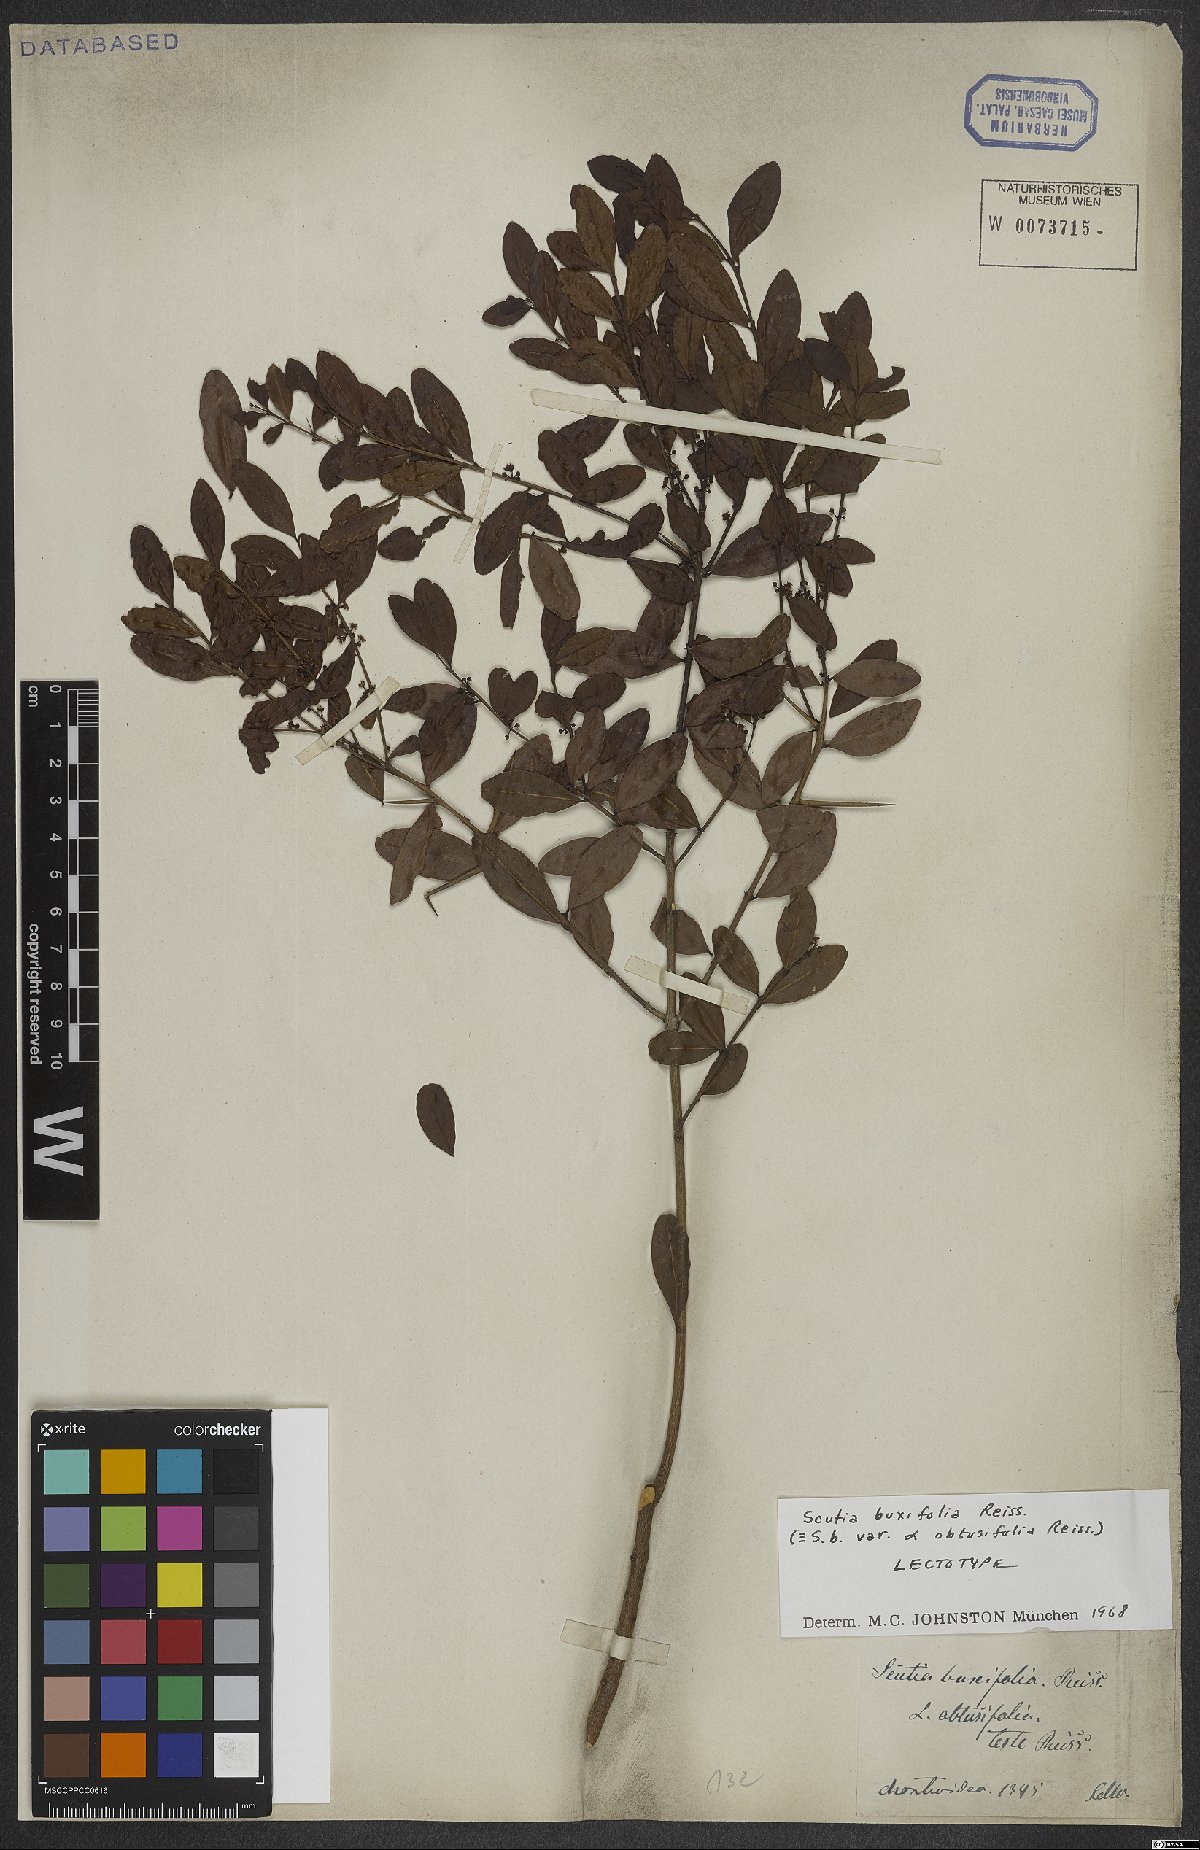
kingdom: Plantae
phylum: Tracheophyta
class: Magnoliopsida
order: Rosales
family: Rhamnaceae
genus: Scutia
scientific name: Scutia buxifolia
